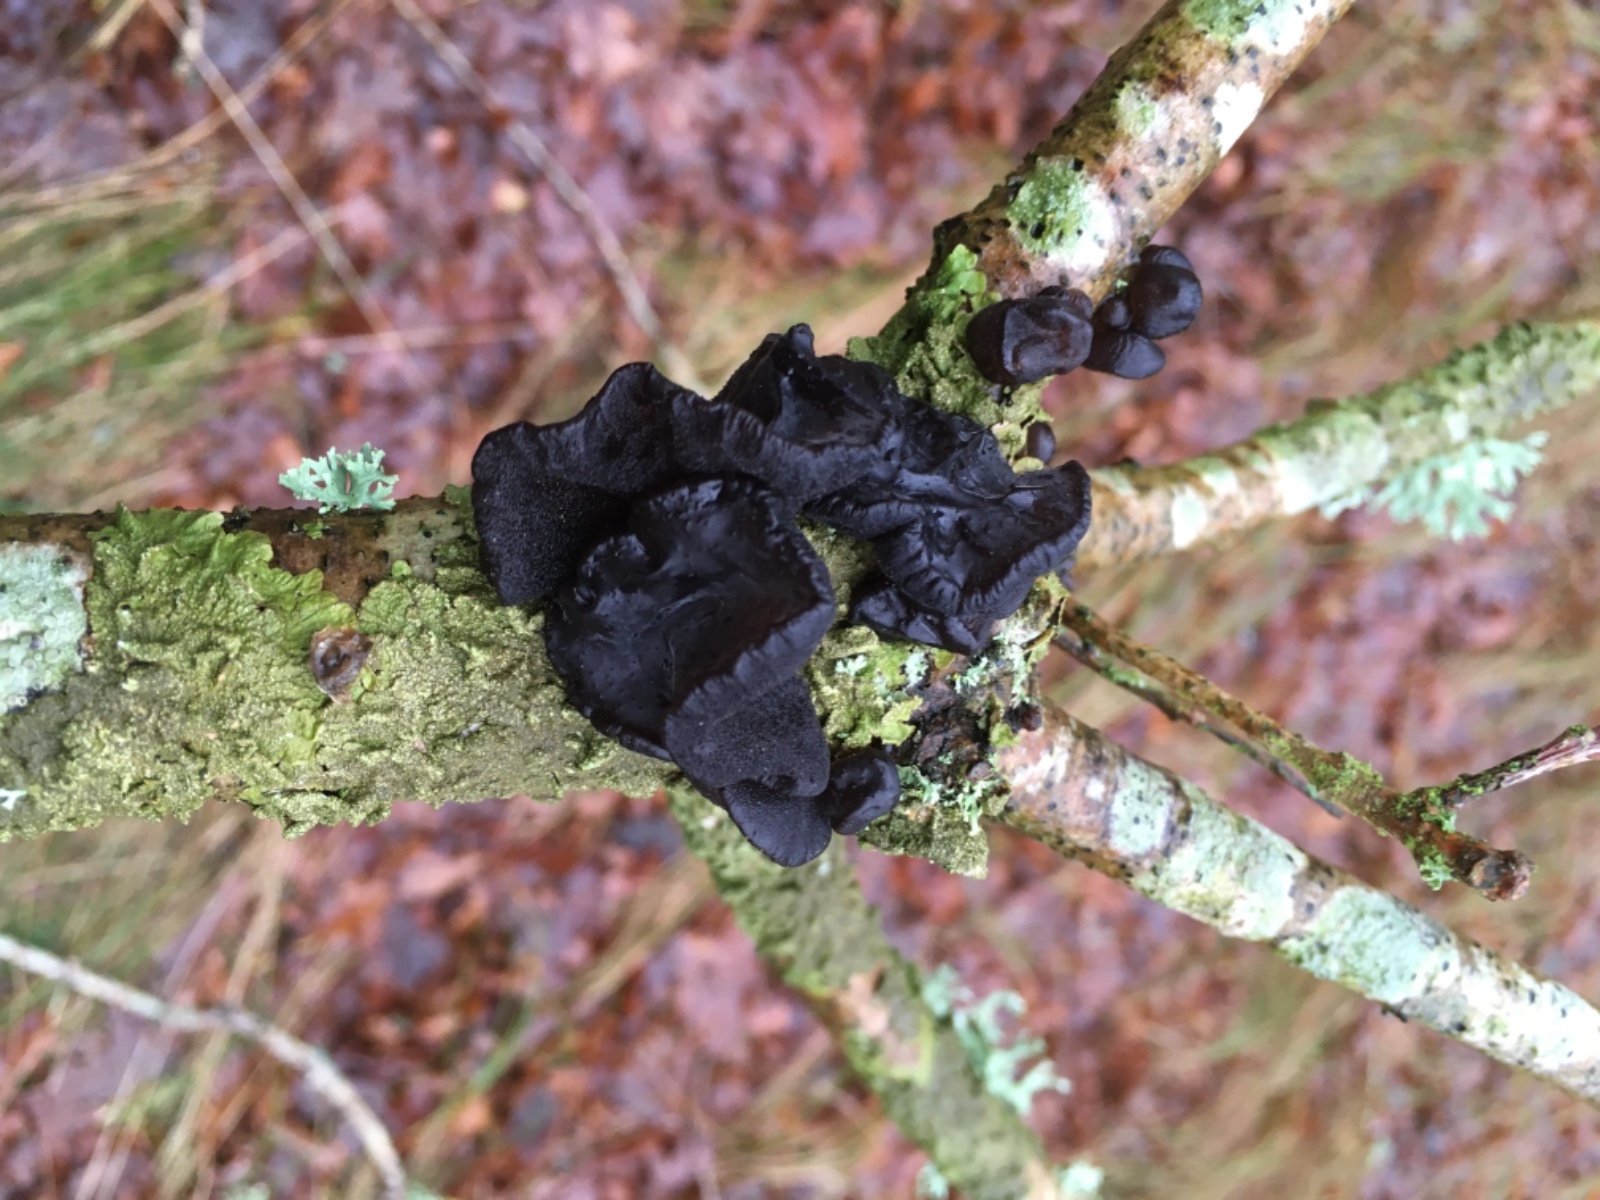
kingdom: Fungi
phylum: Basidiomycota
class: Agaricomycetes
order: Auriculariales
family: Auriculariaceae
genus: Exidia
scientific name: Exidia glandulosa
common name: ege-bævretop
